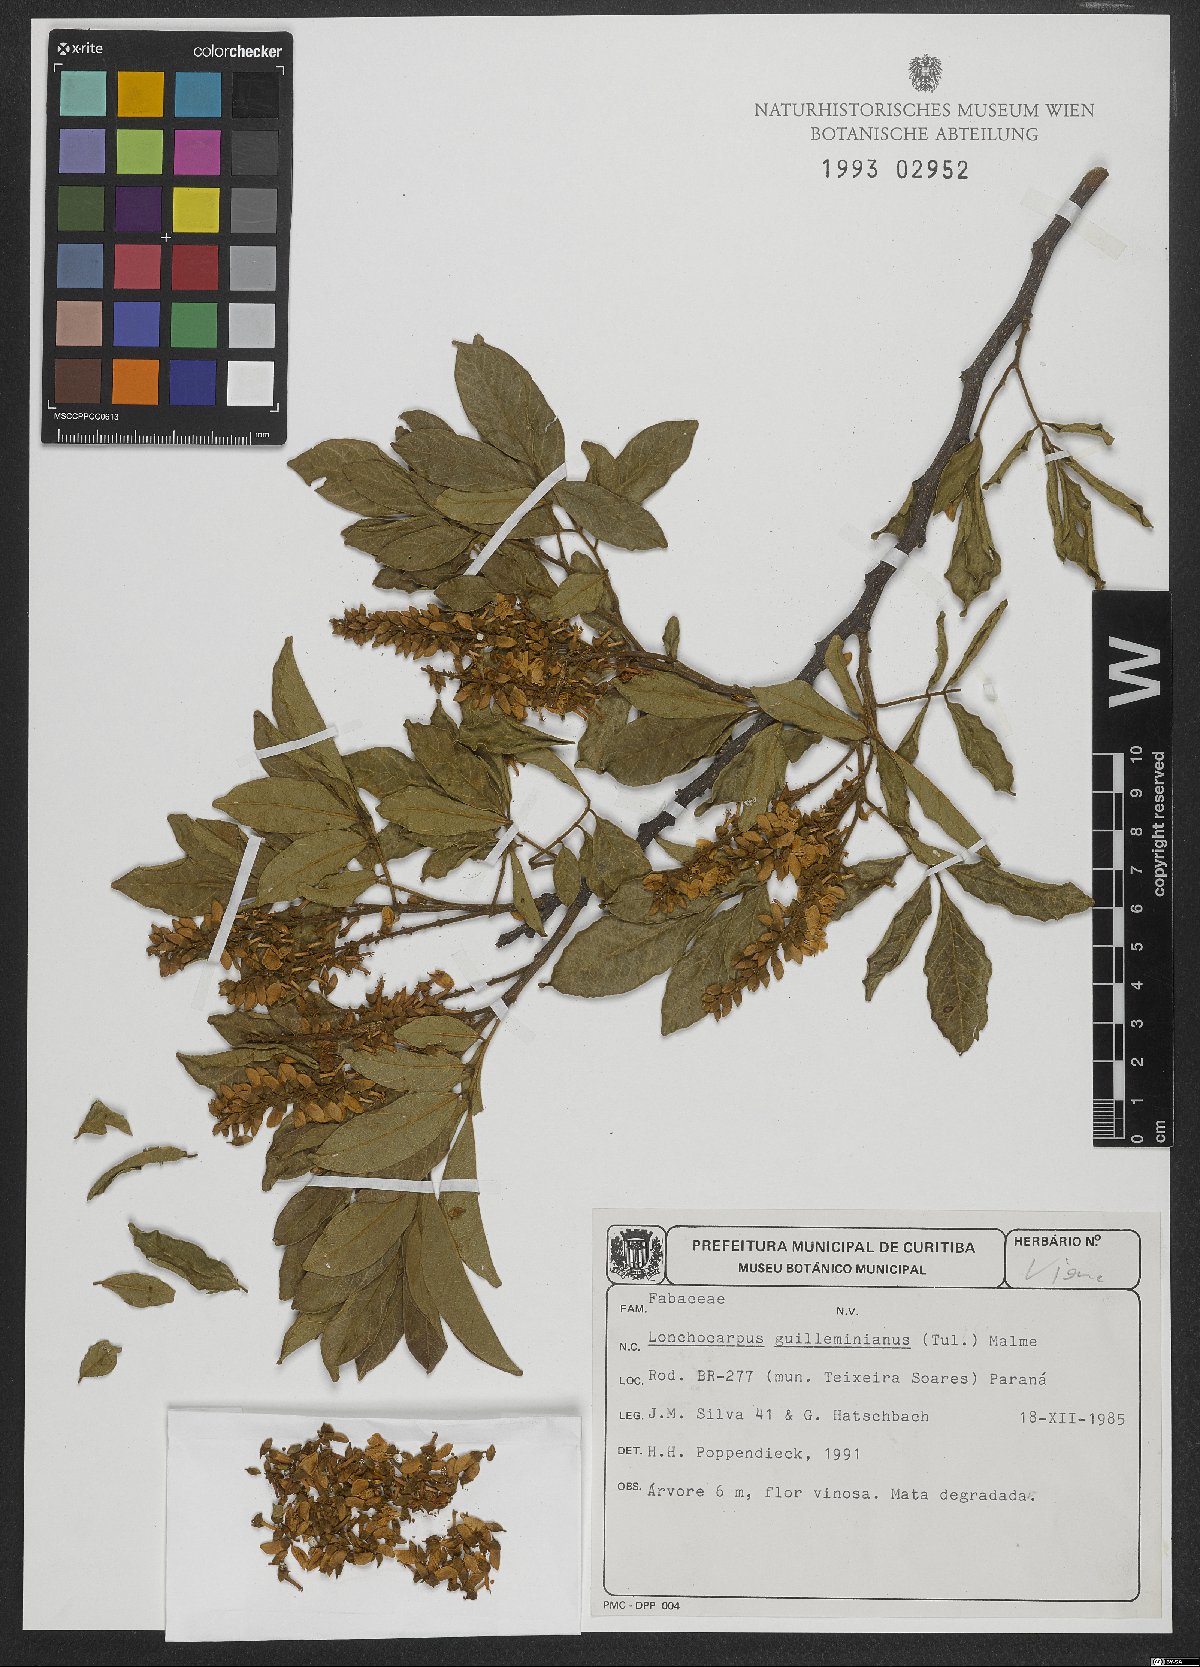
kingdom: Plantae
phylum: Tracheophyta
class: Magnoliopsida
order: Fabales
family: Fabaceae
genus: Lonchocarpus
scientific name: Lonchocarpus cultratus
